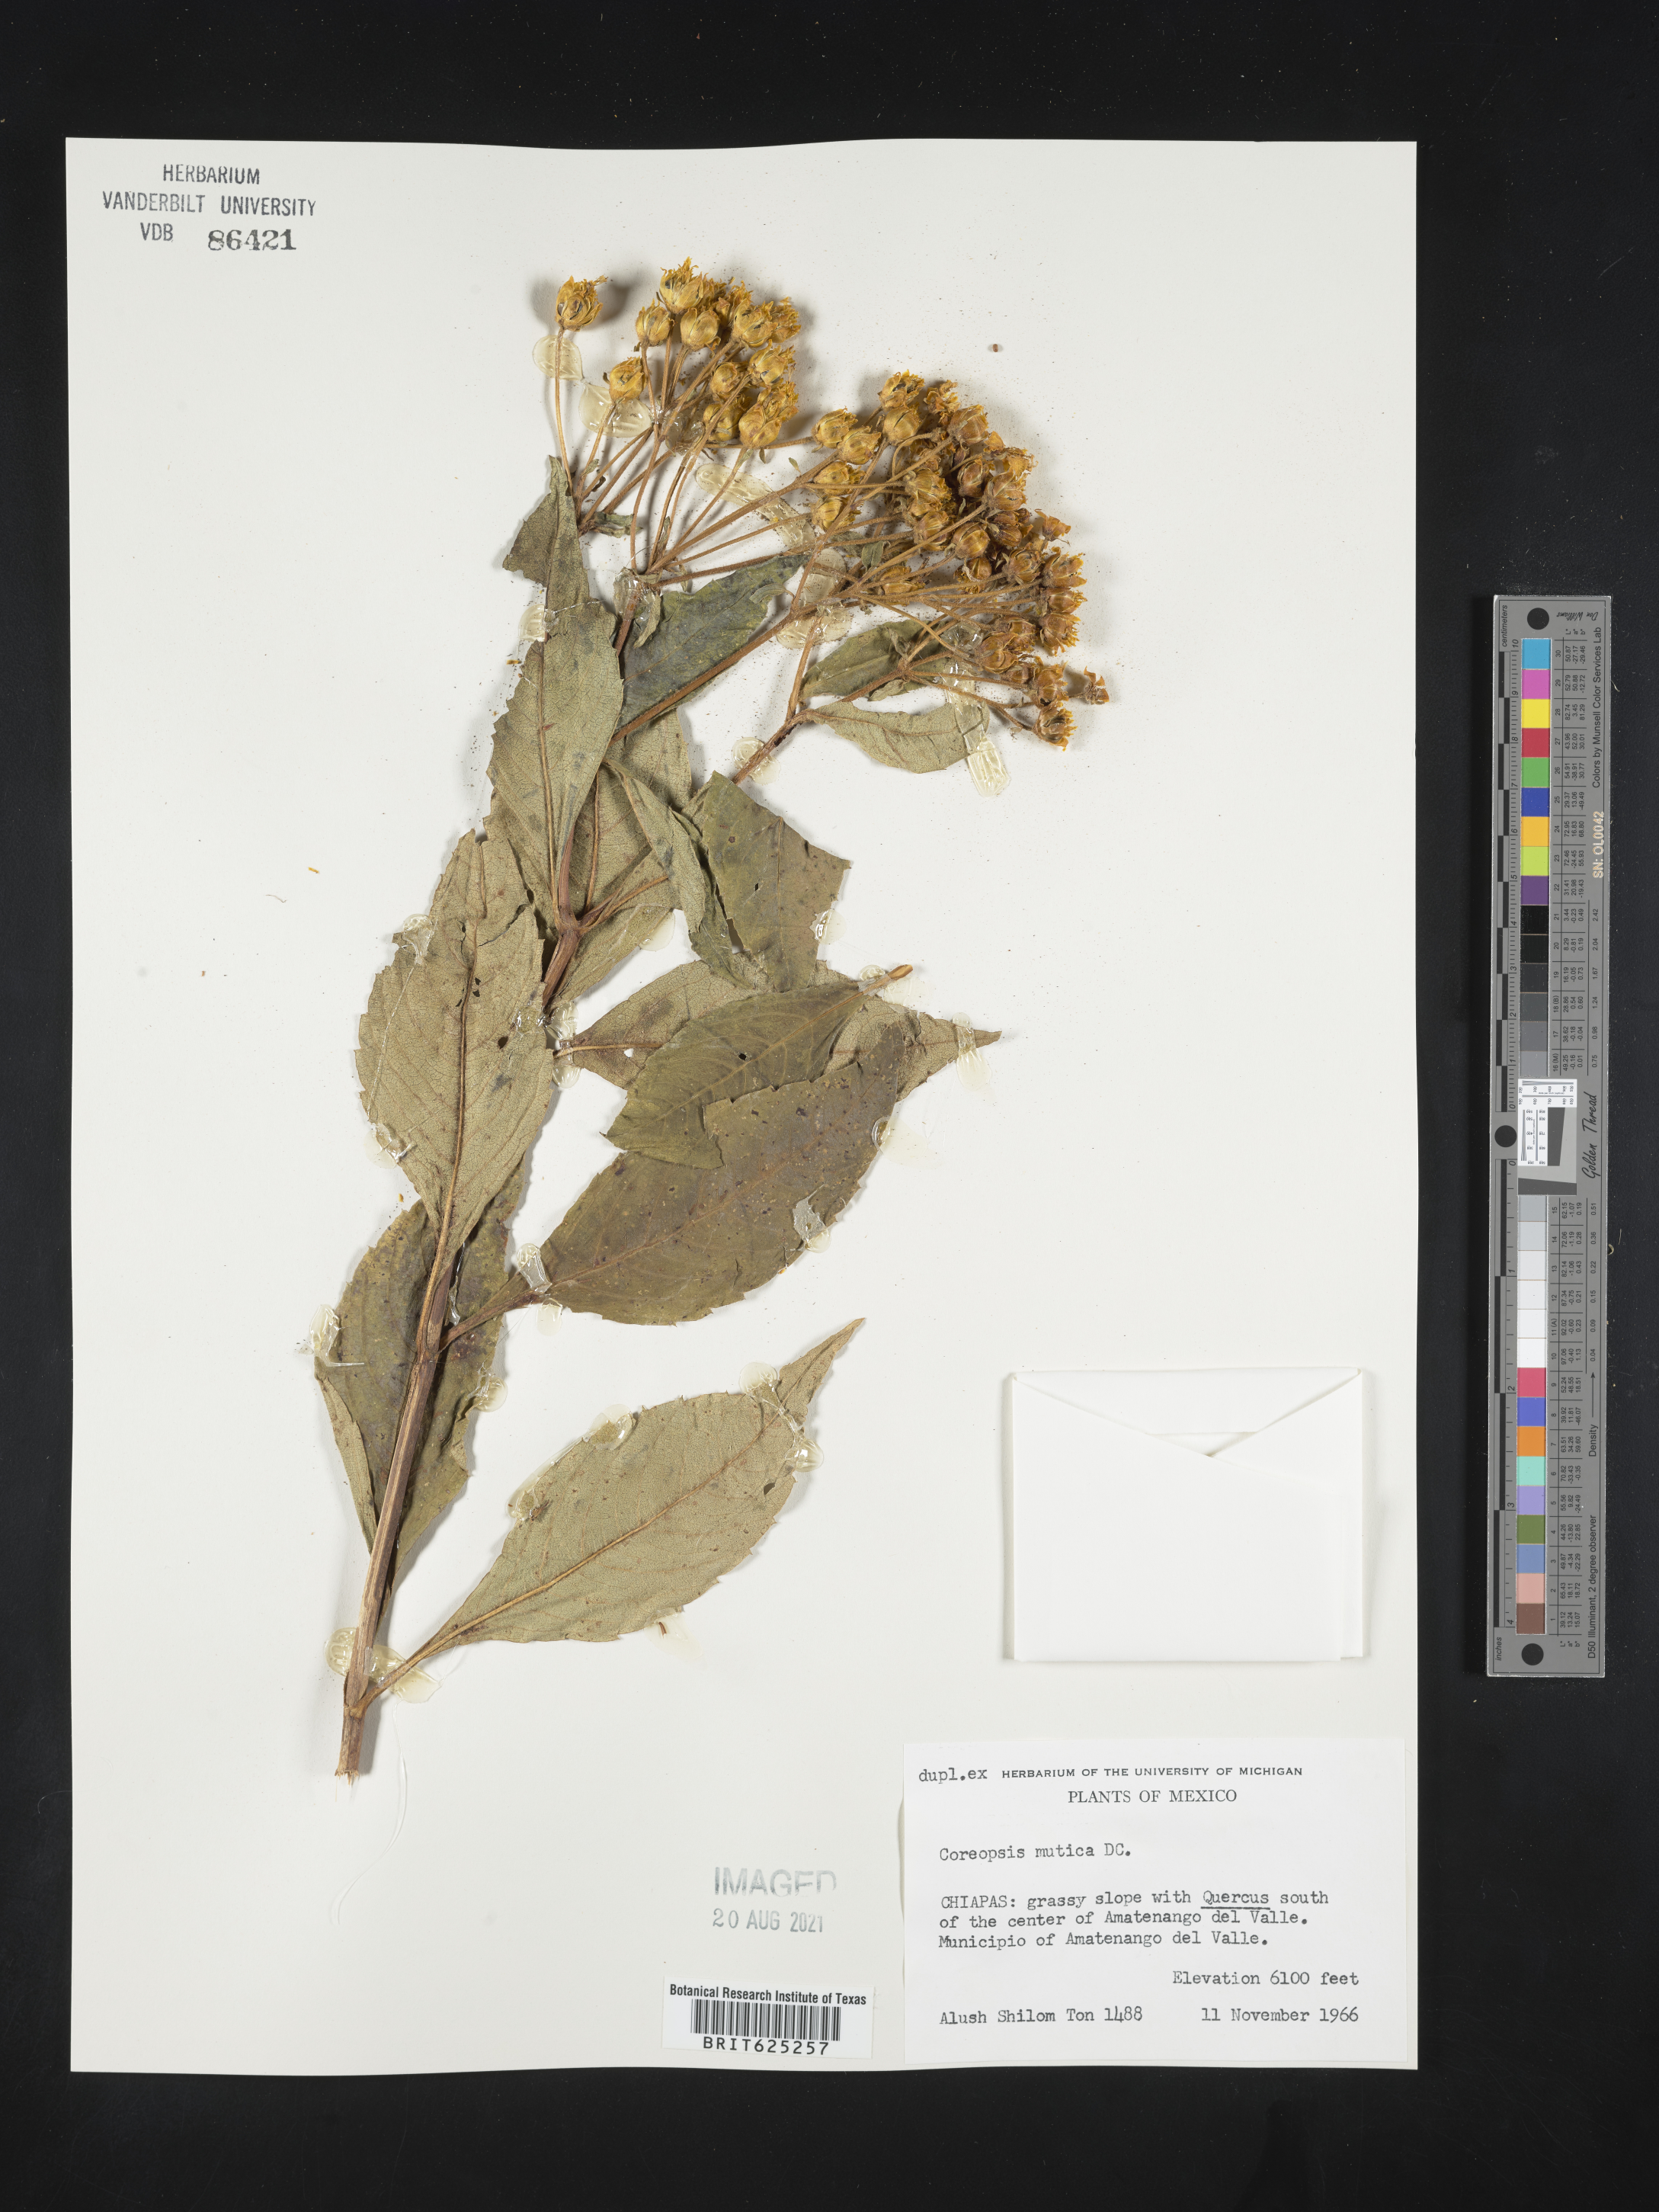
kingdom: Plantae
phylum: Tracheophyta
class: Magnoliopsida
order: Asterales
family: Asteraceae
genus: Coreopsis
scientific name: Coreopsis
